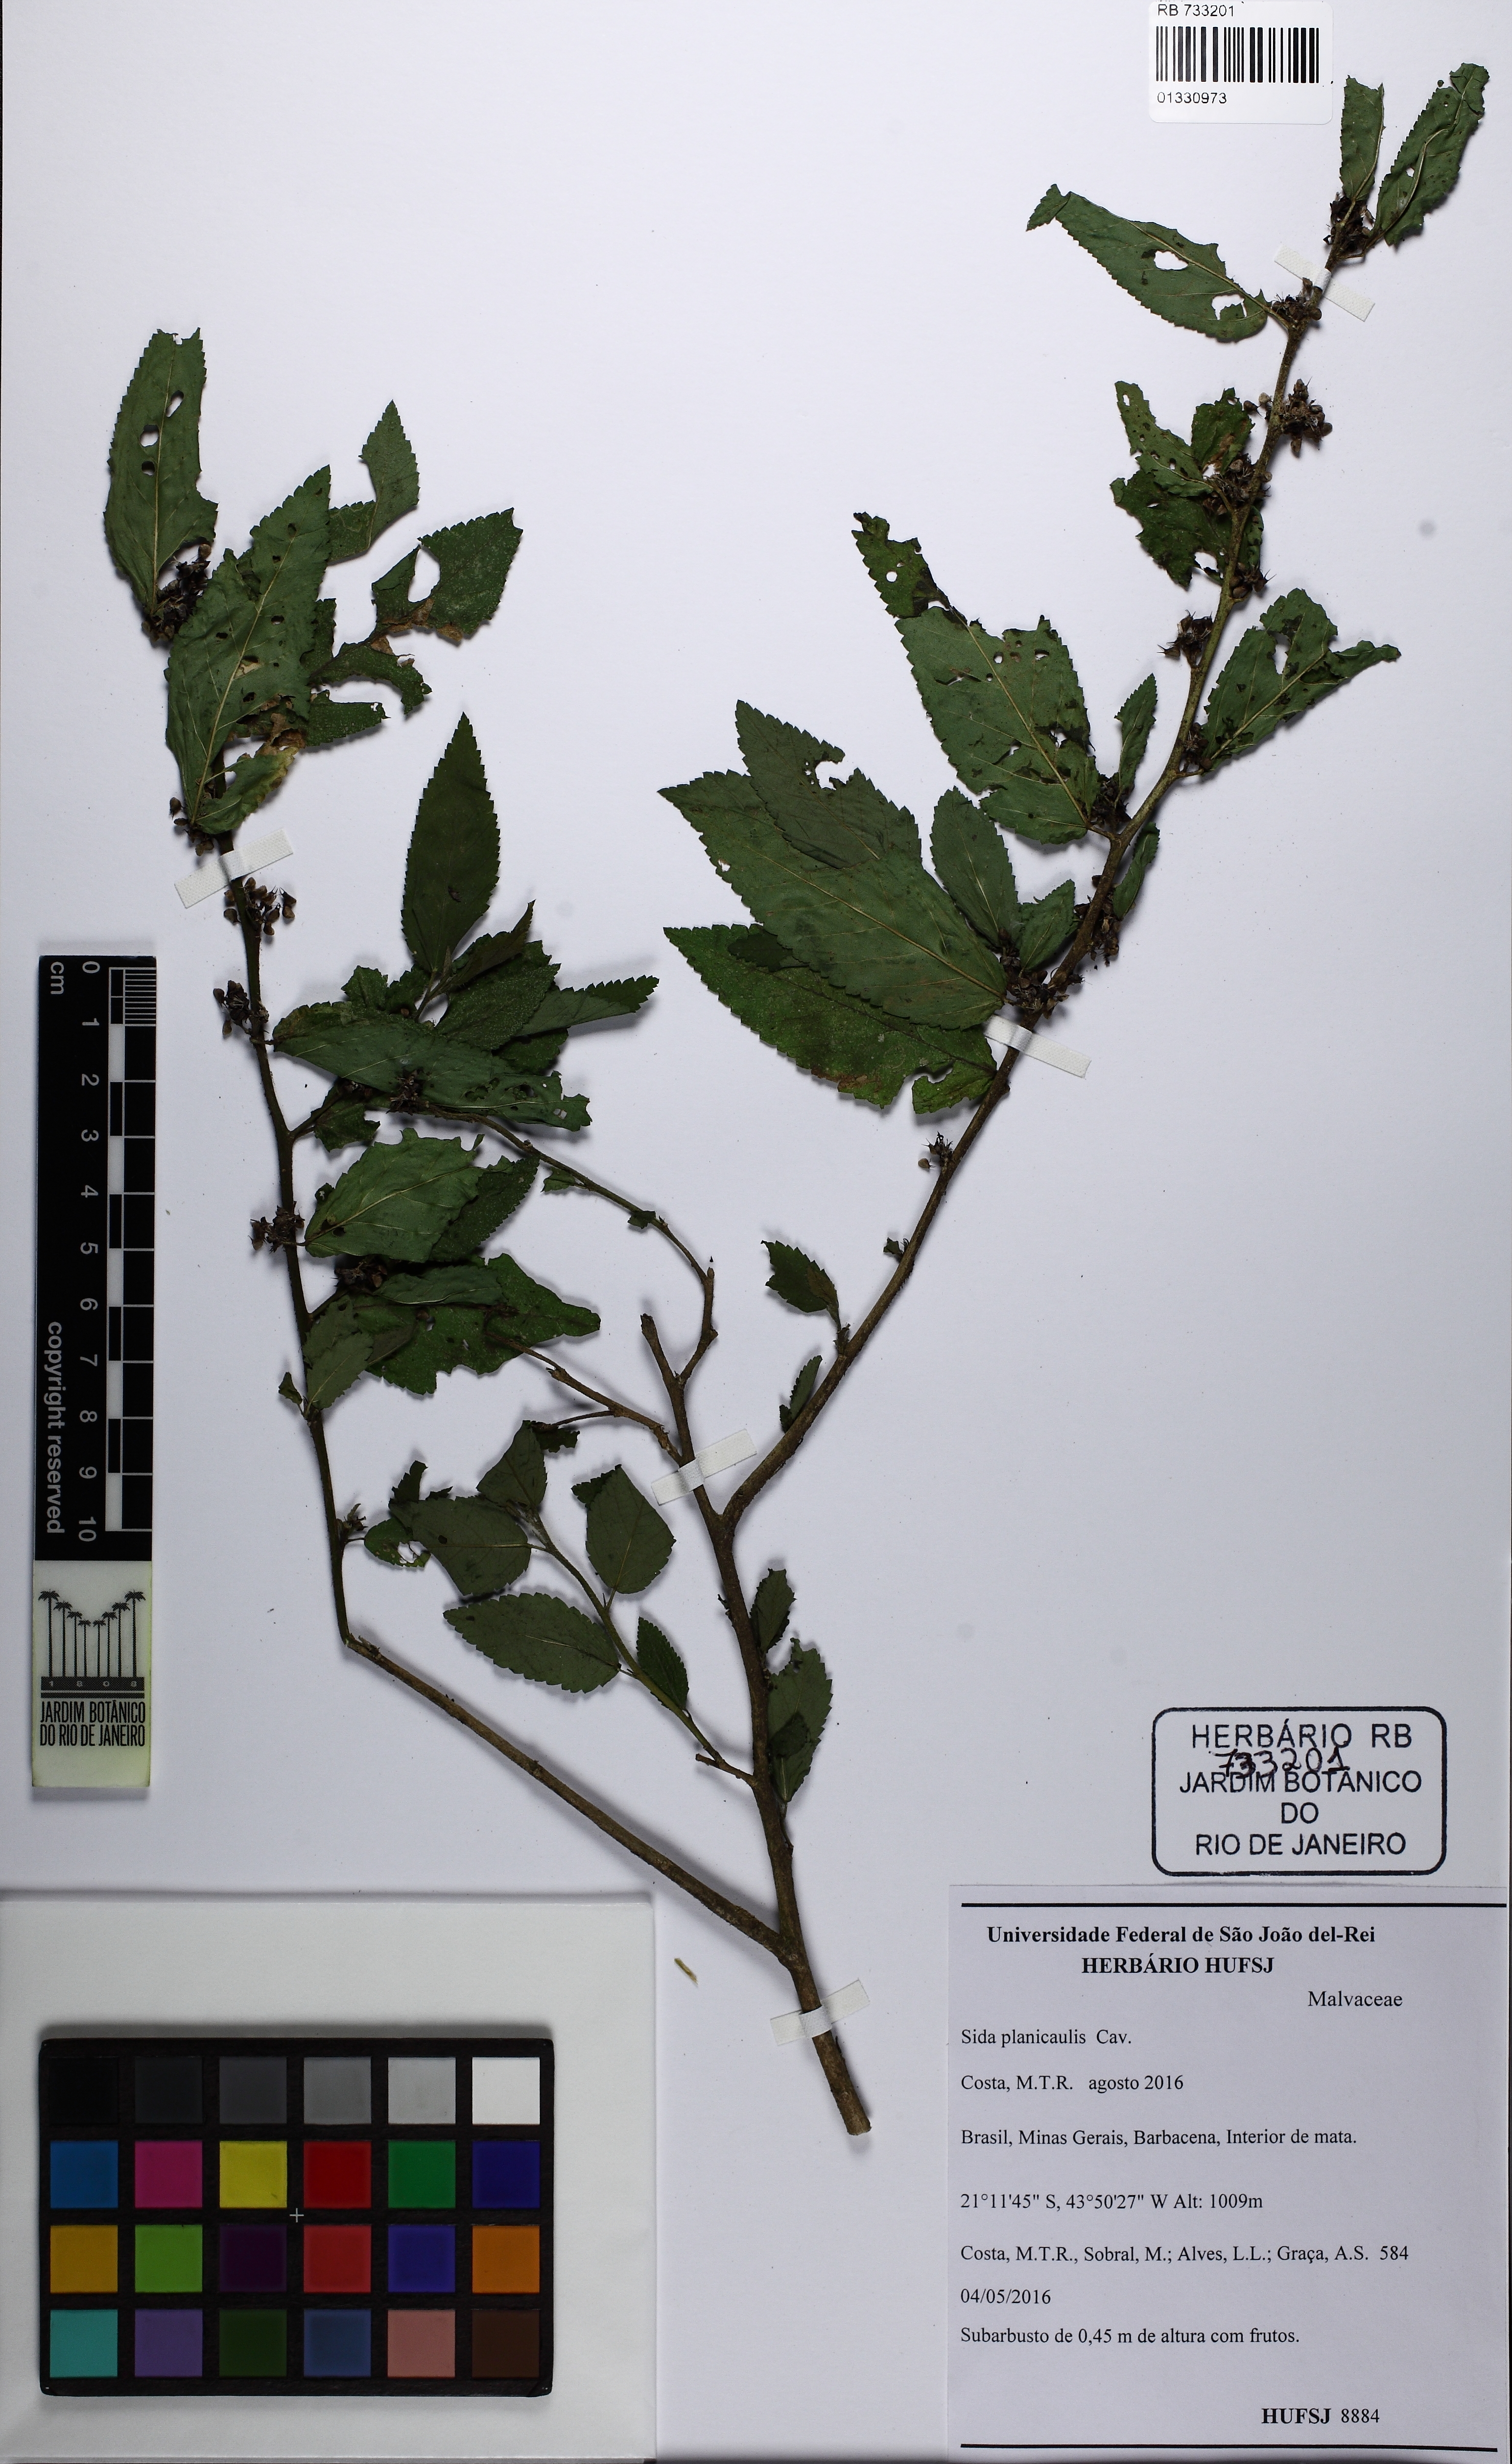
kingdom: Plantae
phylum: Tracheophyta
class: Magnoliopsida
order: Malvales
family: Malvaceae
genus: Sida
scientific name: Sida planicaulis
